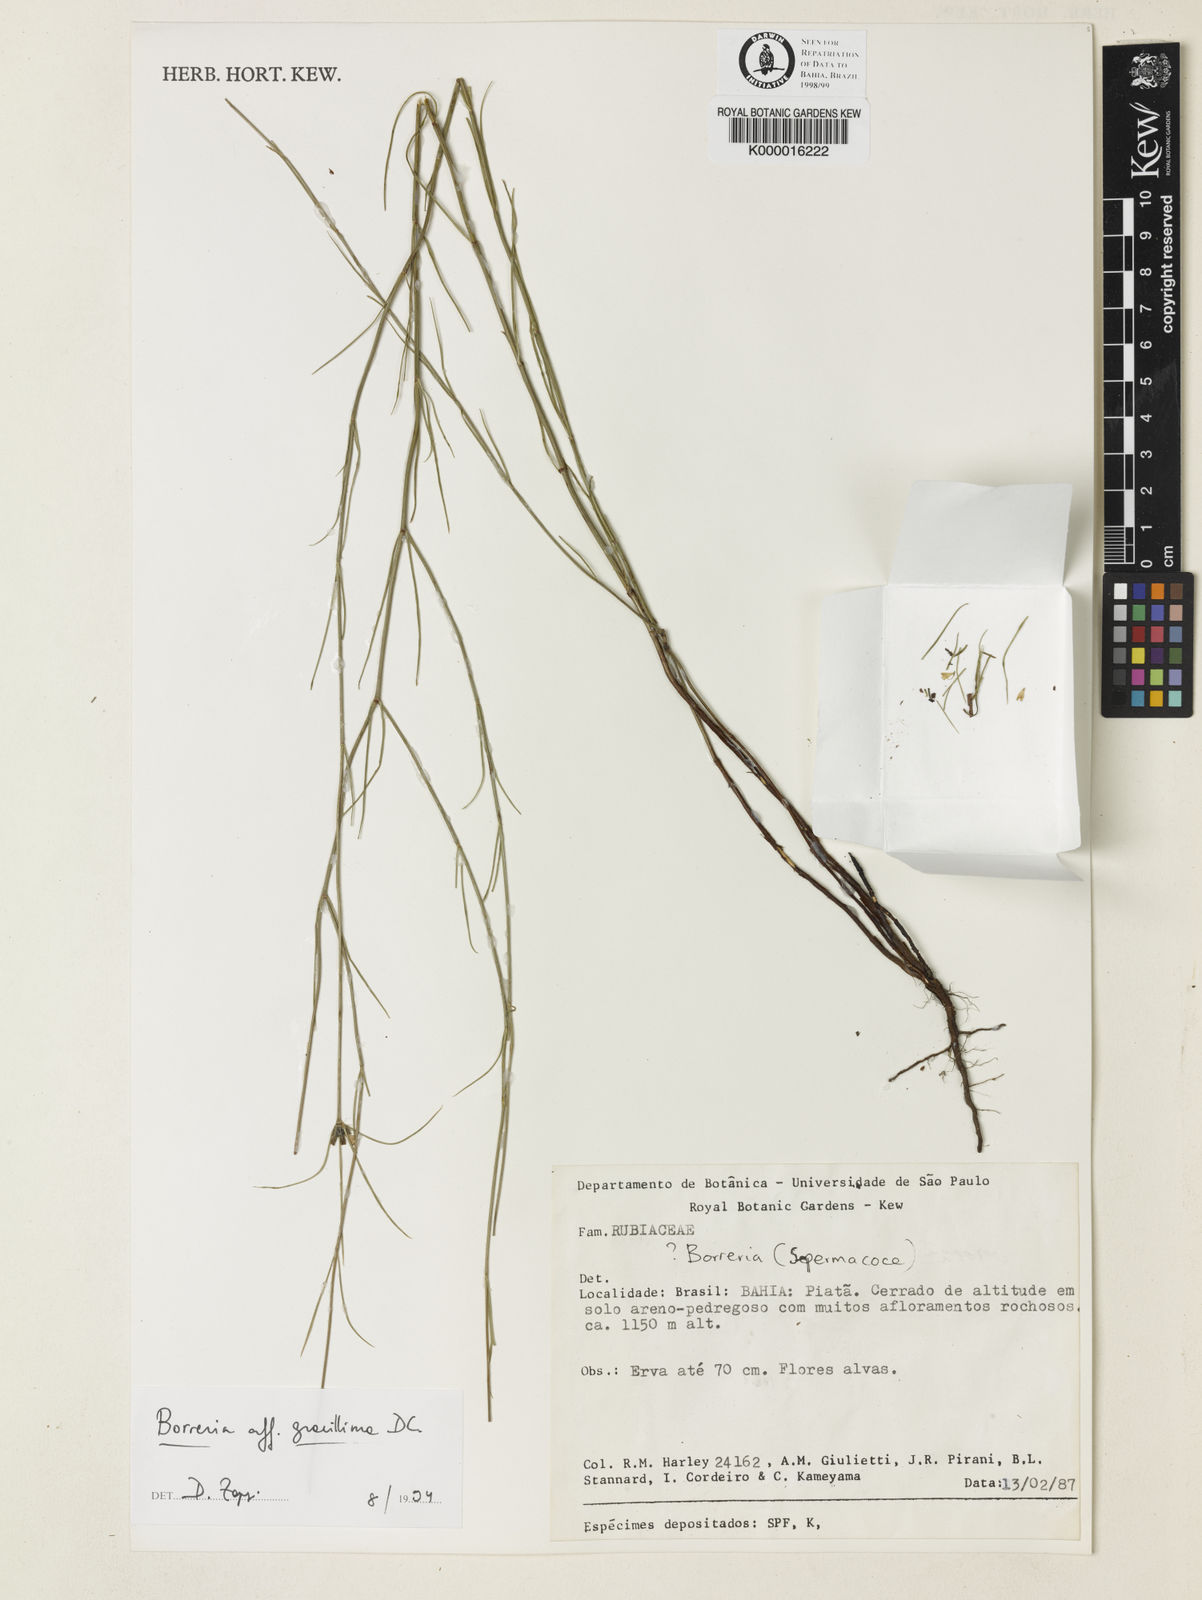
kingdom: Plantae
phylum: Tracheophyta
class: Magnoliopsida
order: Gentianales
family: Rubiaceae
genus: Spermacoce
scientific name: Spermacoce gracillima
